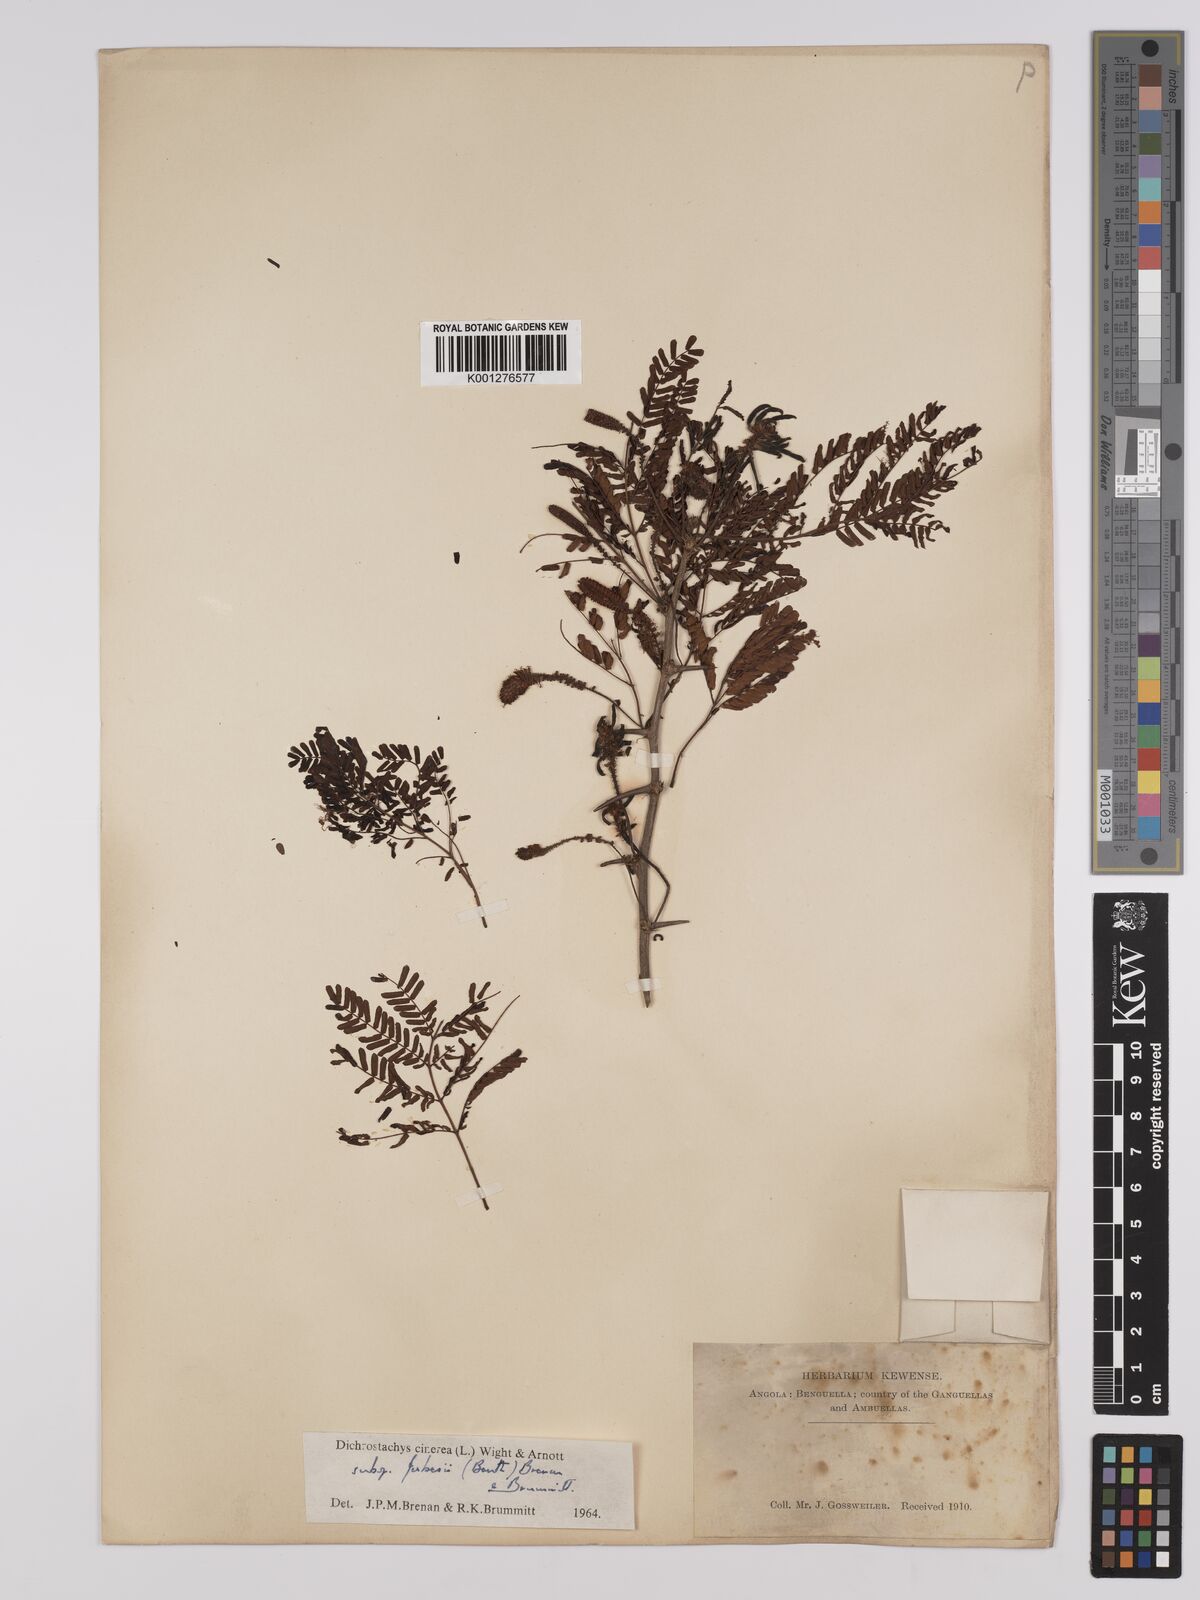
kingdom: Plantae
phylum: Tracheophyta
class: Magnoliopsida
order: Fabales
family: Fabaceae
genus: Dichrostachys
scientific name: Dichrostachys cinerea
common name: Sicklebush
